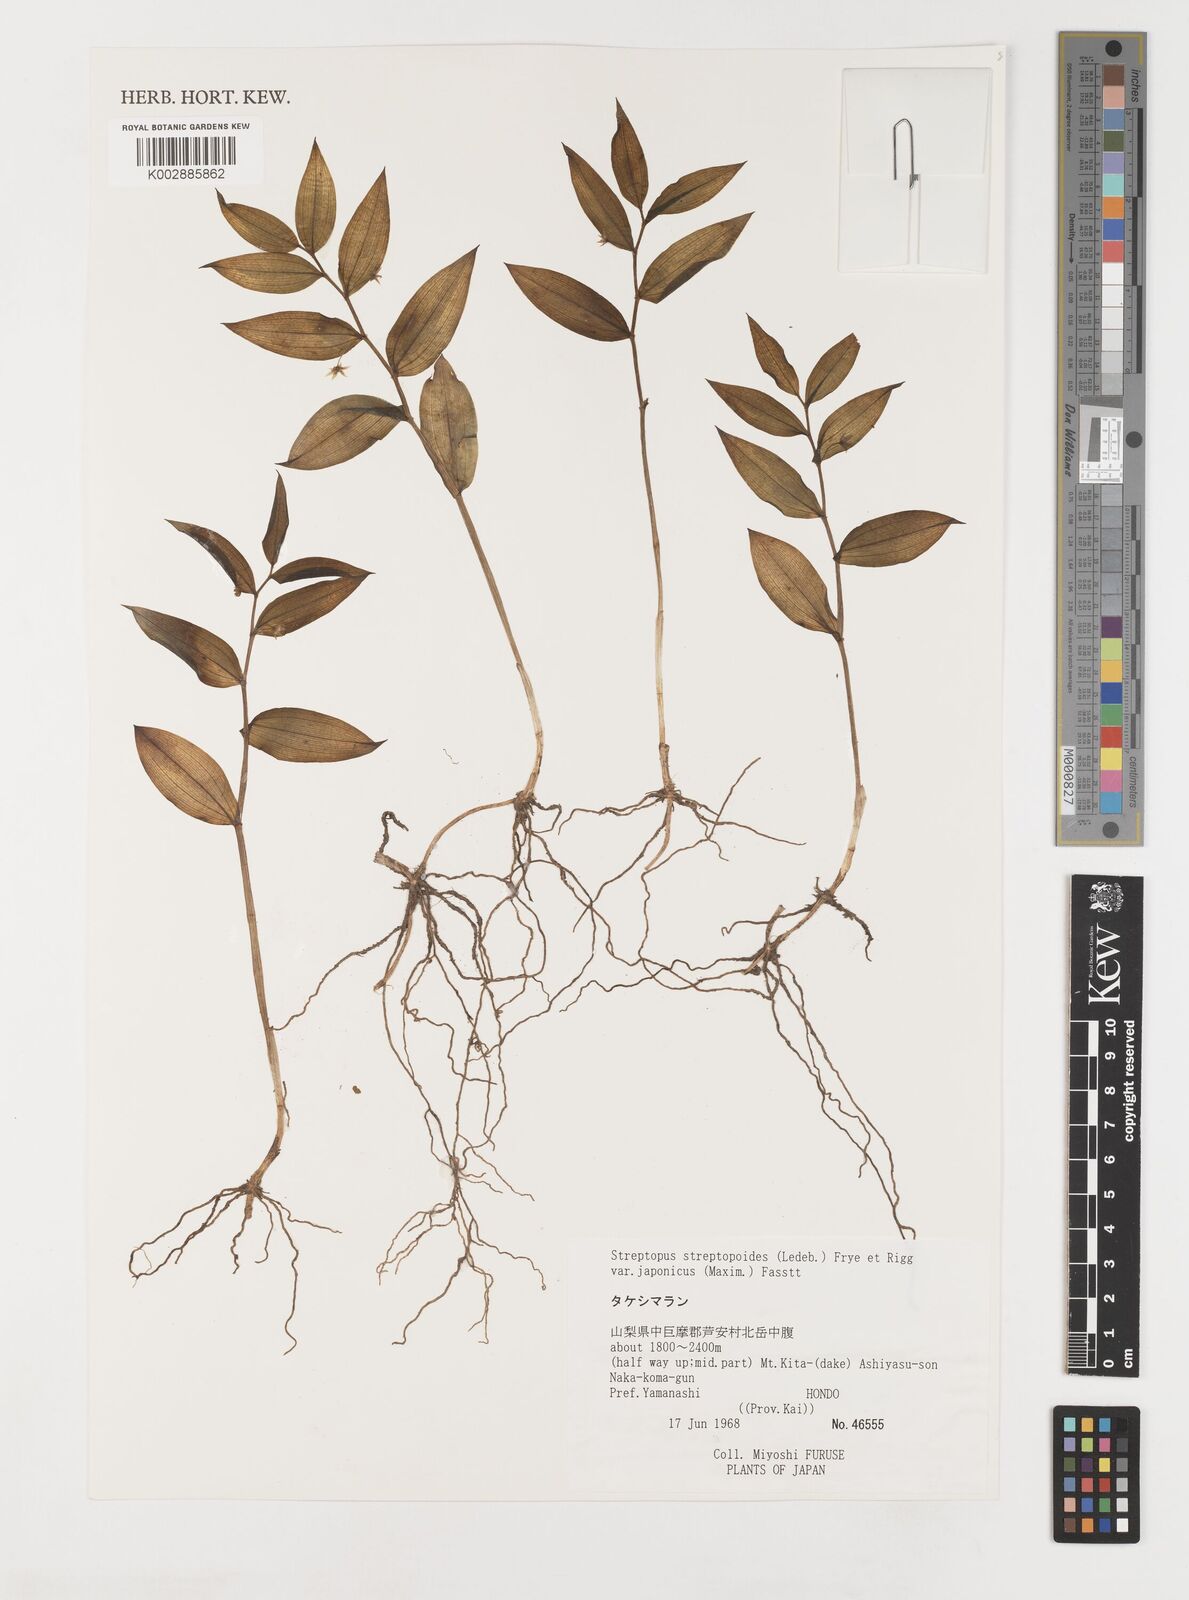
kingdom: Plantae
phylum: Tracheophyta
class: Liliopsida
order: Liliales
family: Liliaceae
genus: Streptopus
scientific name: Streptopus streptopoides
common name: Small twisted-stalk
